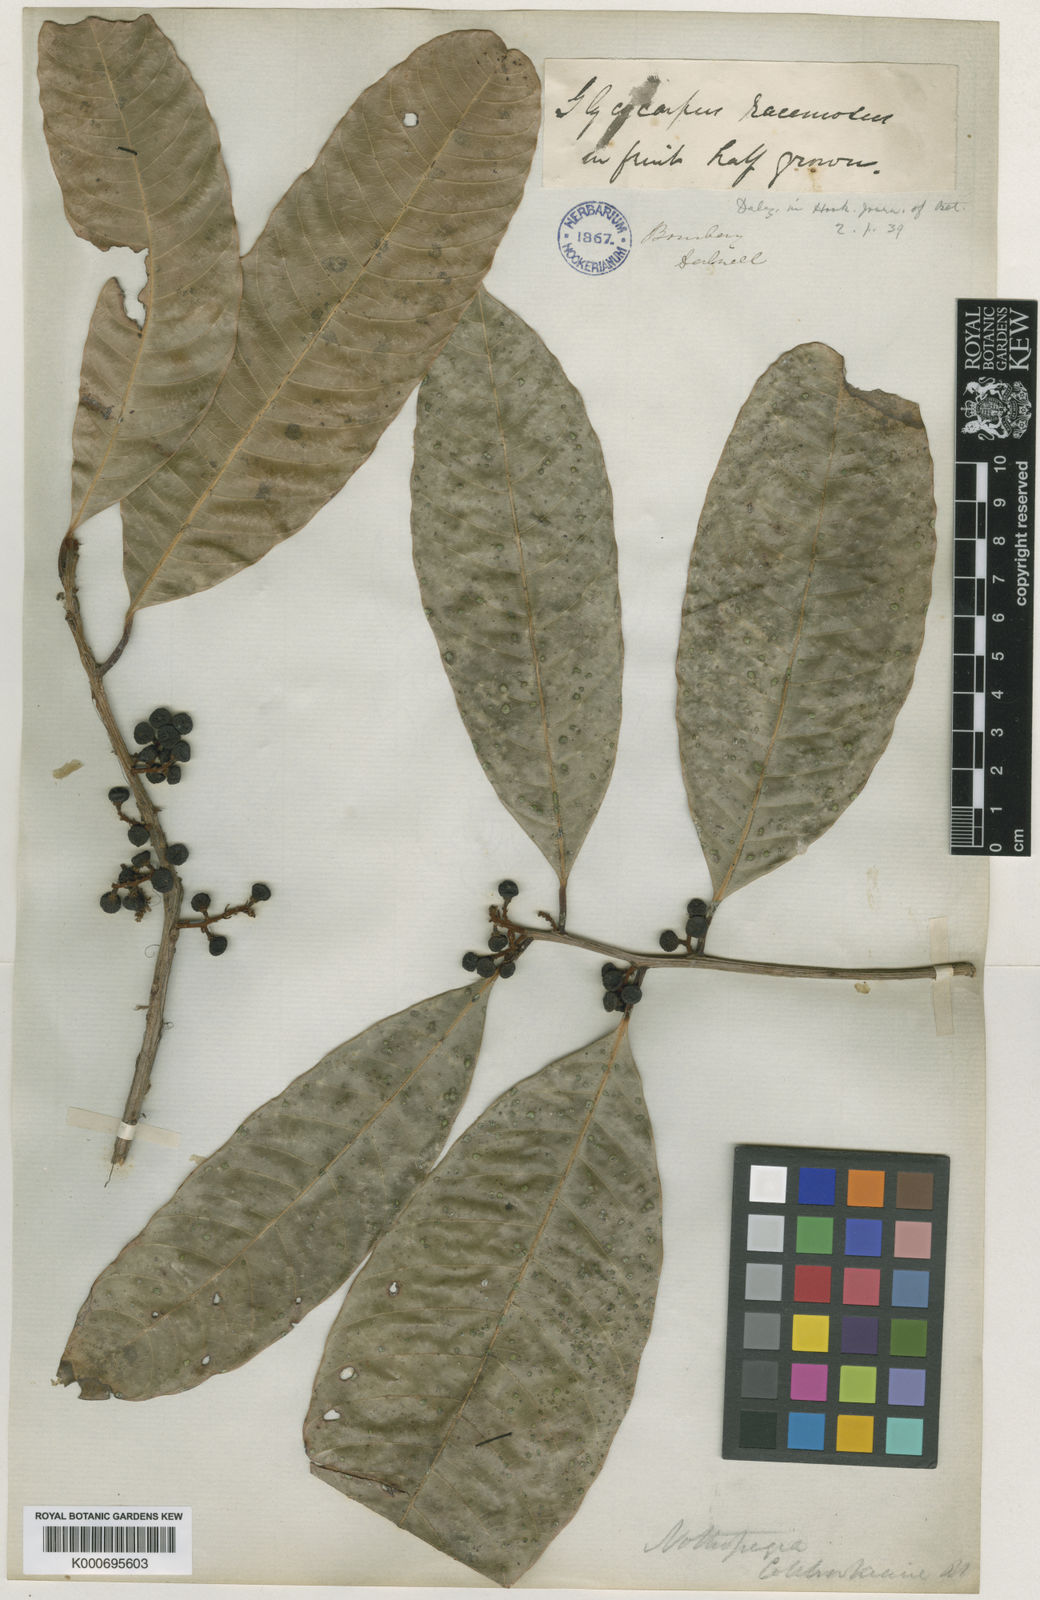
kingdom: Plantae
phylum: Tracheophyta
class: Magnoliopsida
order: Sapindales
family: Anacardiaceae
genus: Nothopegia
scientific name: Nothopegia castaneifolia
